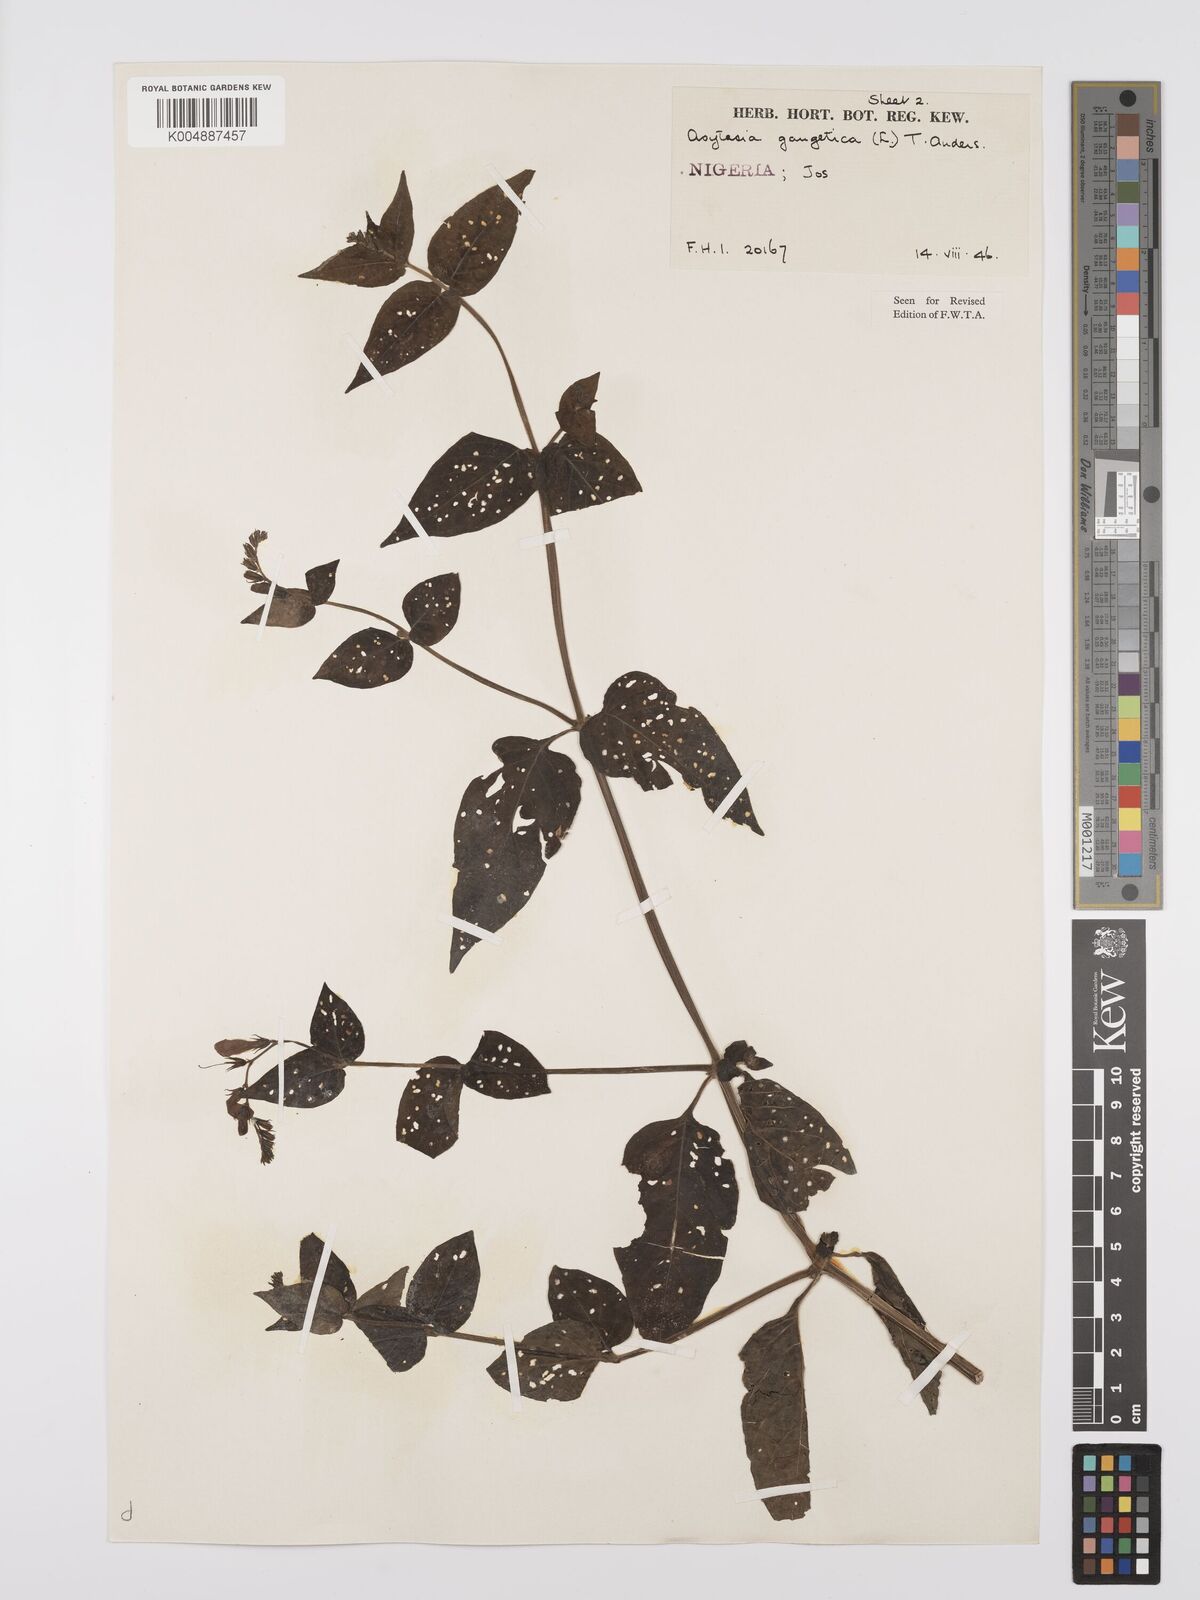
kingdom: Plantae
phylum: Tracheophyta
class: Magnoliopsida
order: Lamiales
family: Acanthaceae
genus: Asystasia
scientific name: Asystasia intrusa
